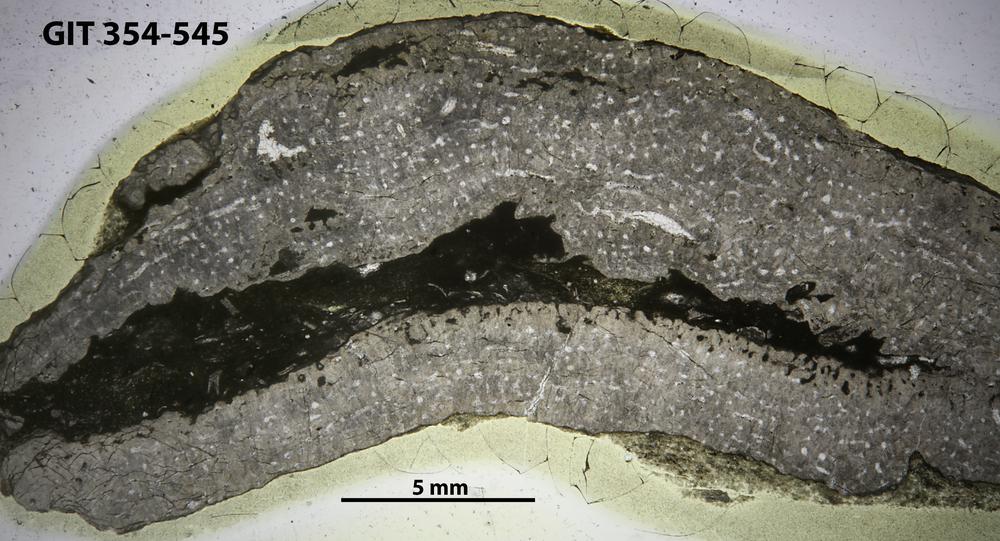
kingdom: Animalia
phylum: Porifera
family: Stromatoporidae
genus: Eostromatopora
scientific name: Eostromatopora
